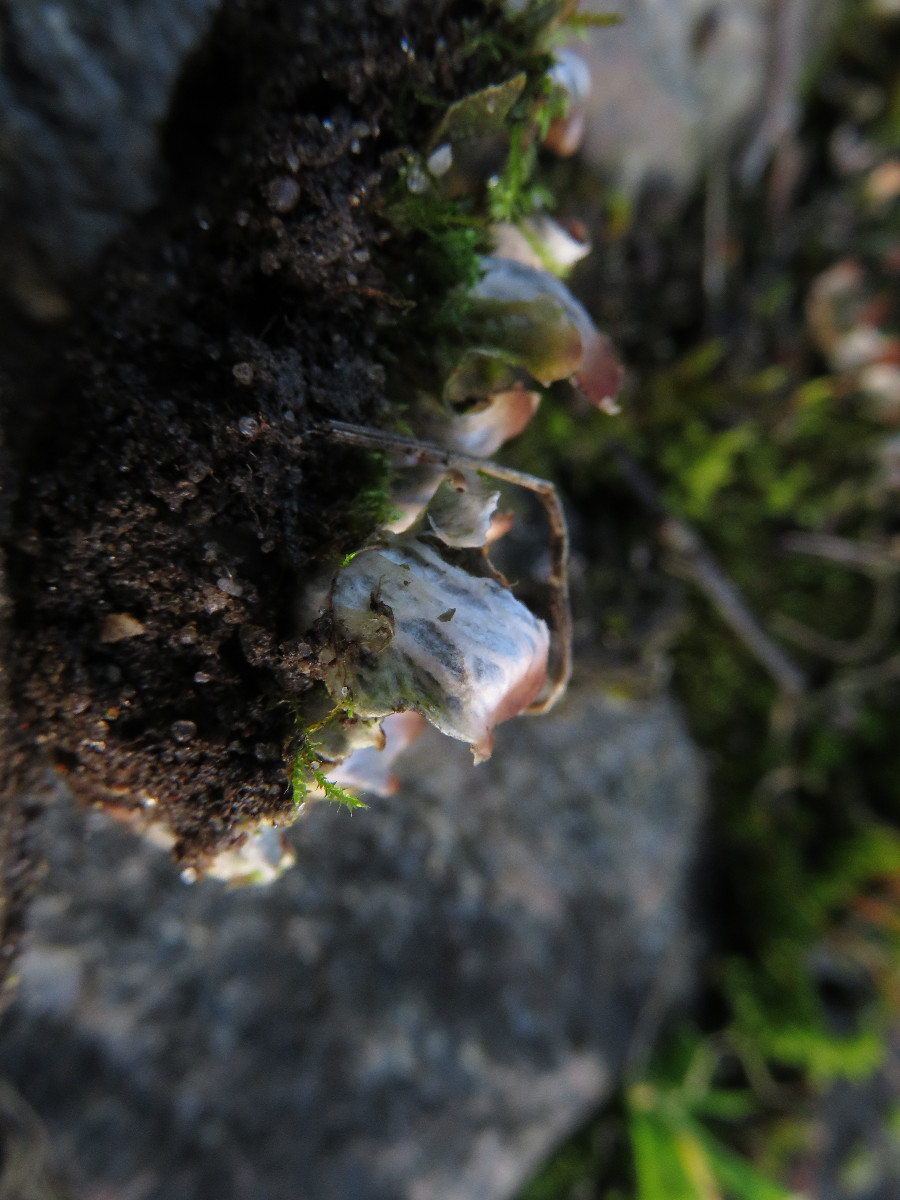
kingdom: Fungi
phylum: Ascomycota
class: Lecanoromycetes
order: Peltigerales
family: Peltigeraceae
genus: Peltigera
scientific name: Peltigera didactyla
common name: liden skjoldlav
